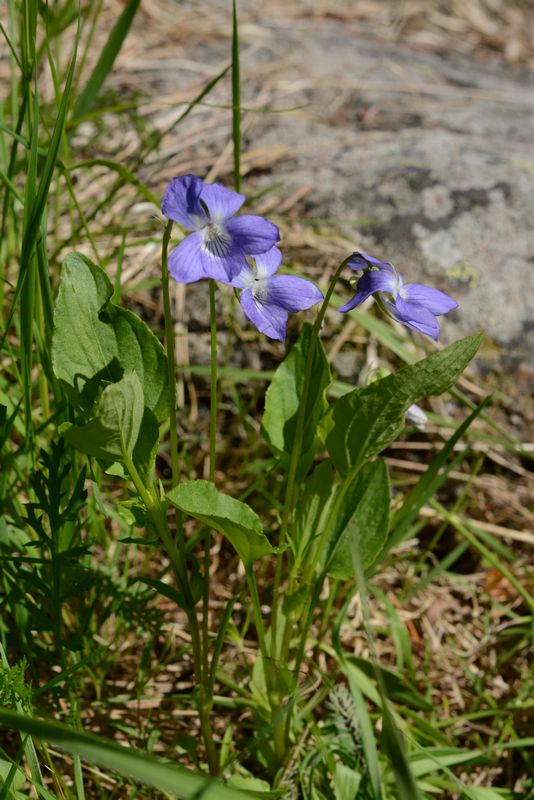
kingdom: Plantae
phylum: Tracheophyta
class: Magnoliopsida
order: Malpighiales
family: Violaceae
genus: Viola
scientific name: Viola canina
